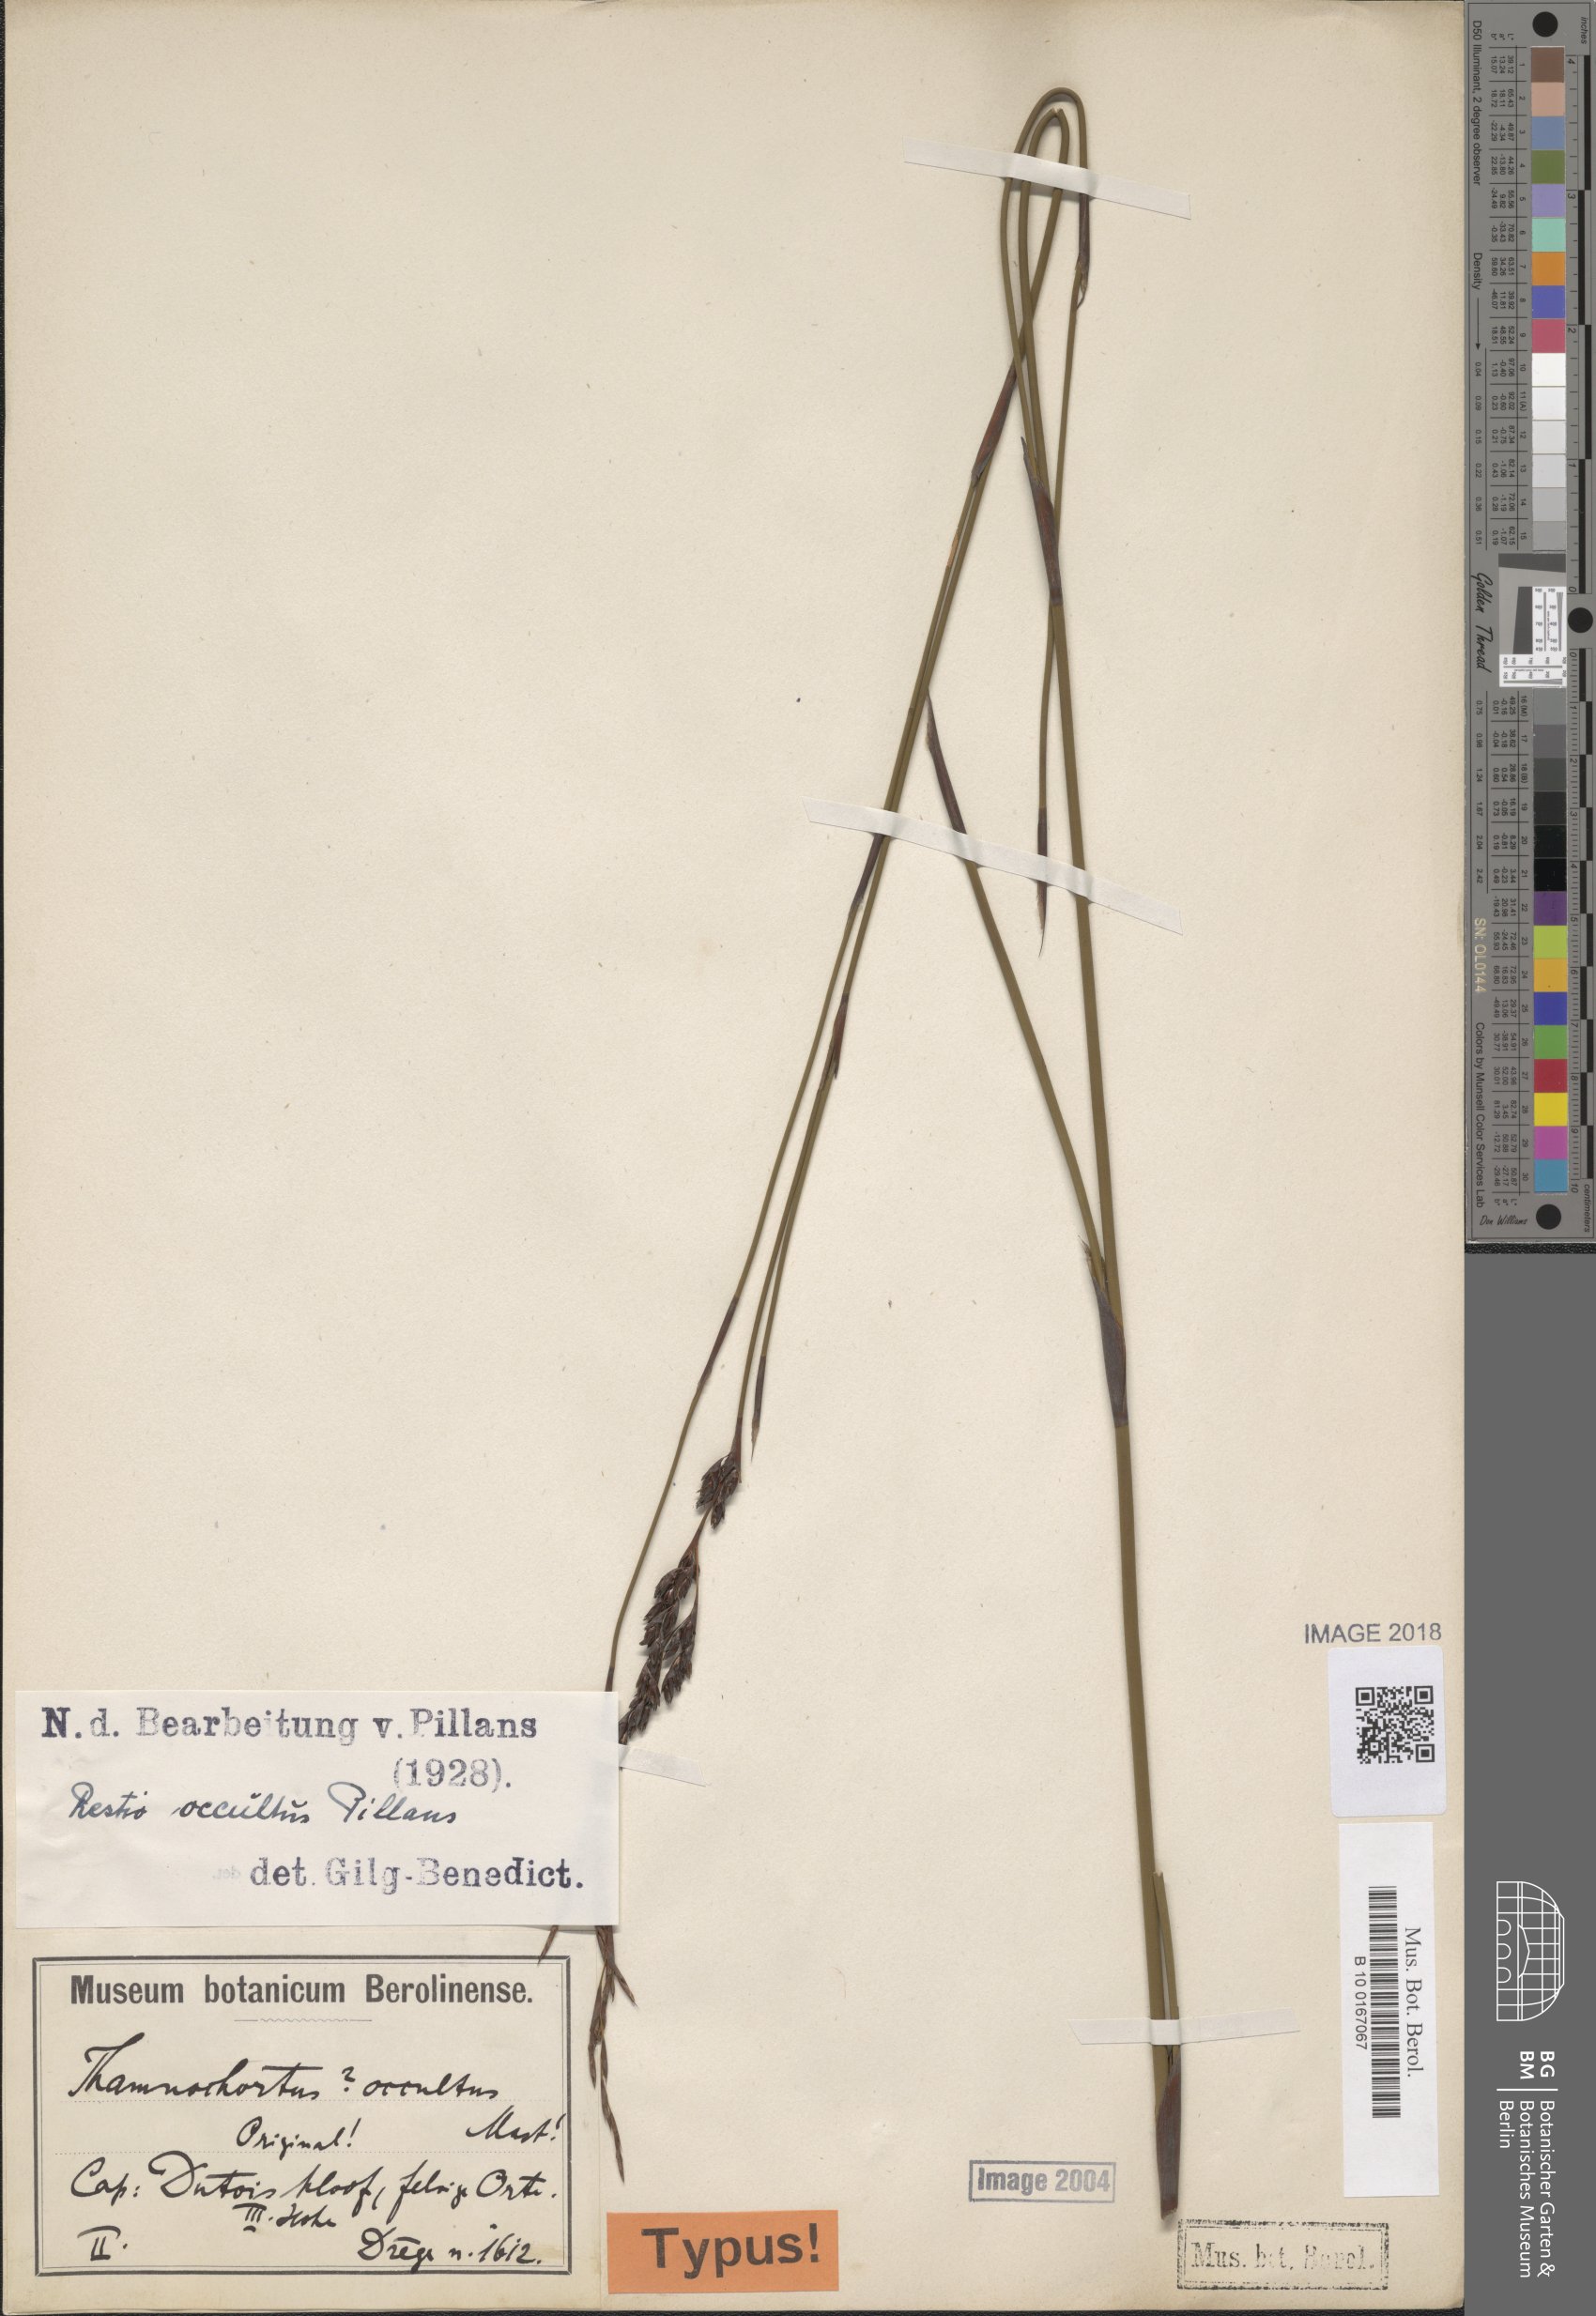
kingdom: Plantae
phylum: Tracheophyta
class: Liliopsida
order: Poales
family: Restionaceae
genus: Restio
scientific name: Restio occultus
